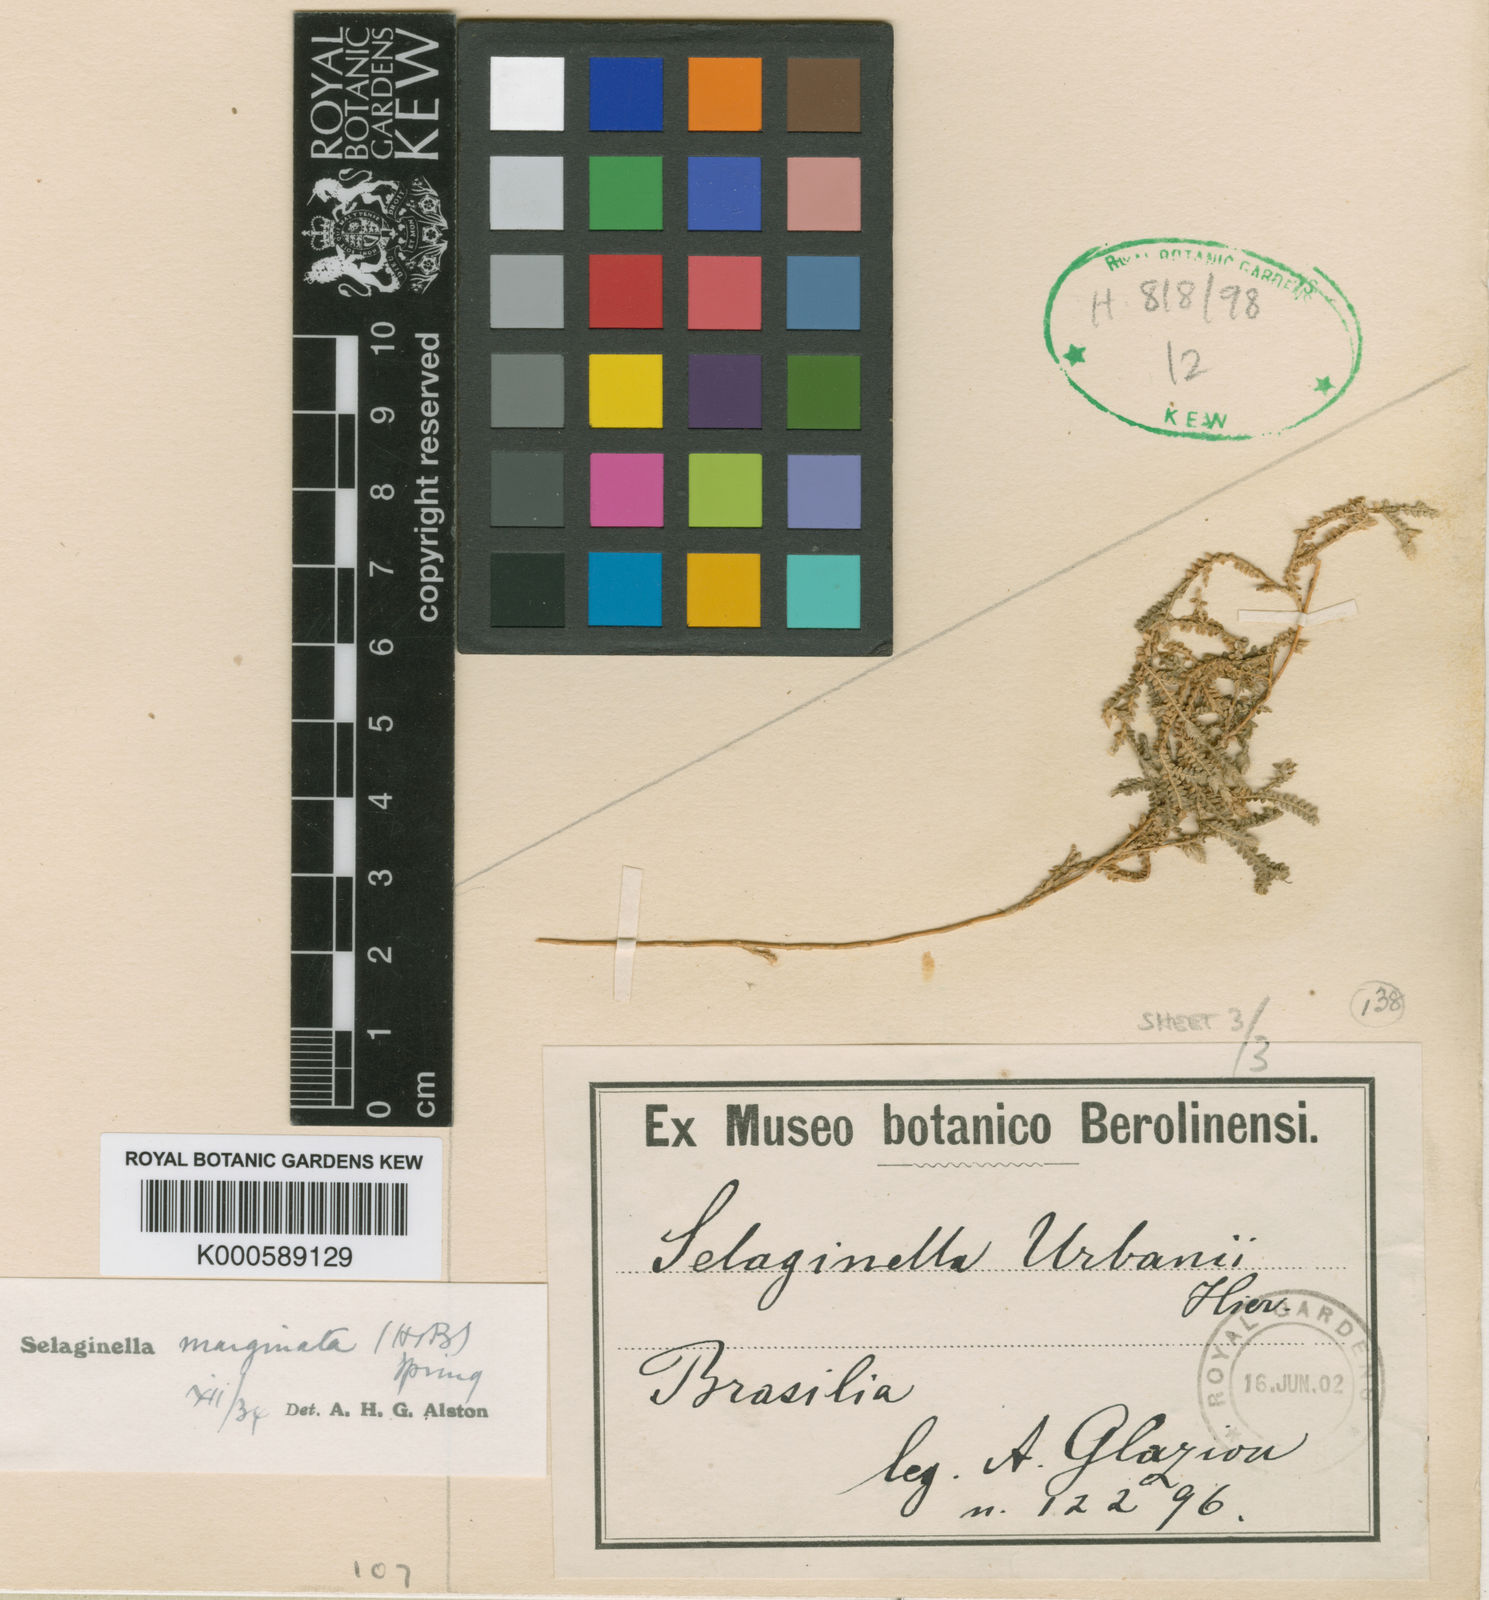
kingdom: Plantae
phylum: Tracheophyta
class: Lycopodiopsida
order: Selaginellales
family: Selaginellaceae
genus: Selaginella
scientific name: Selaginella marginata
